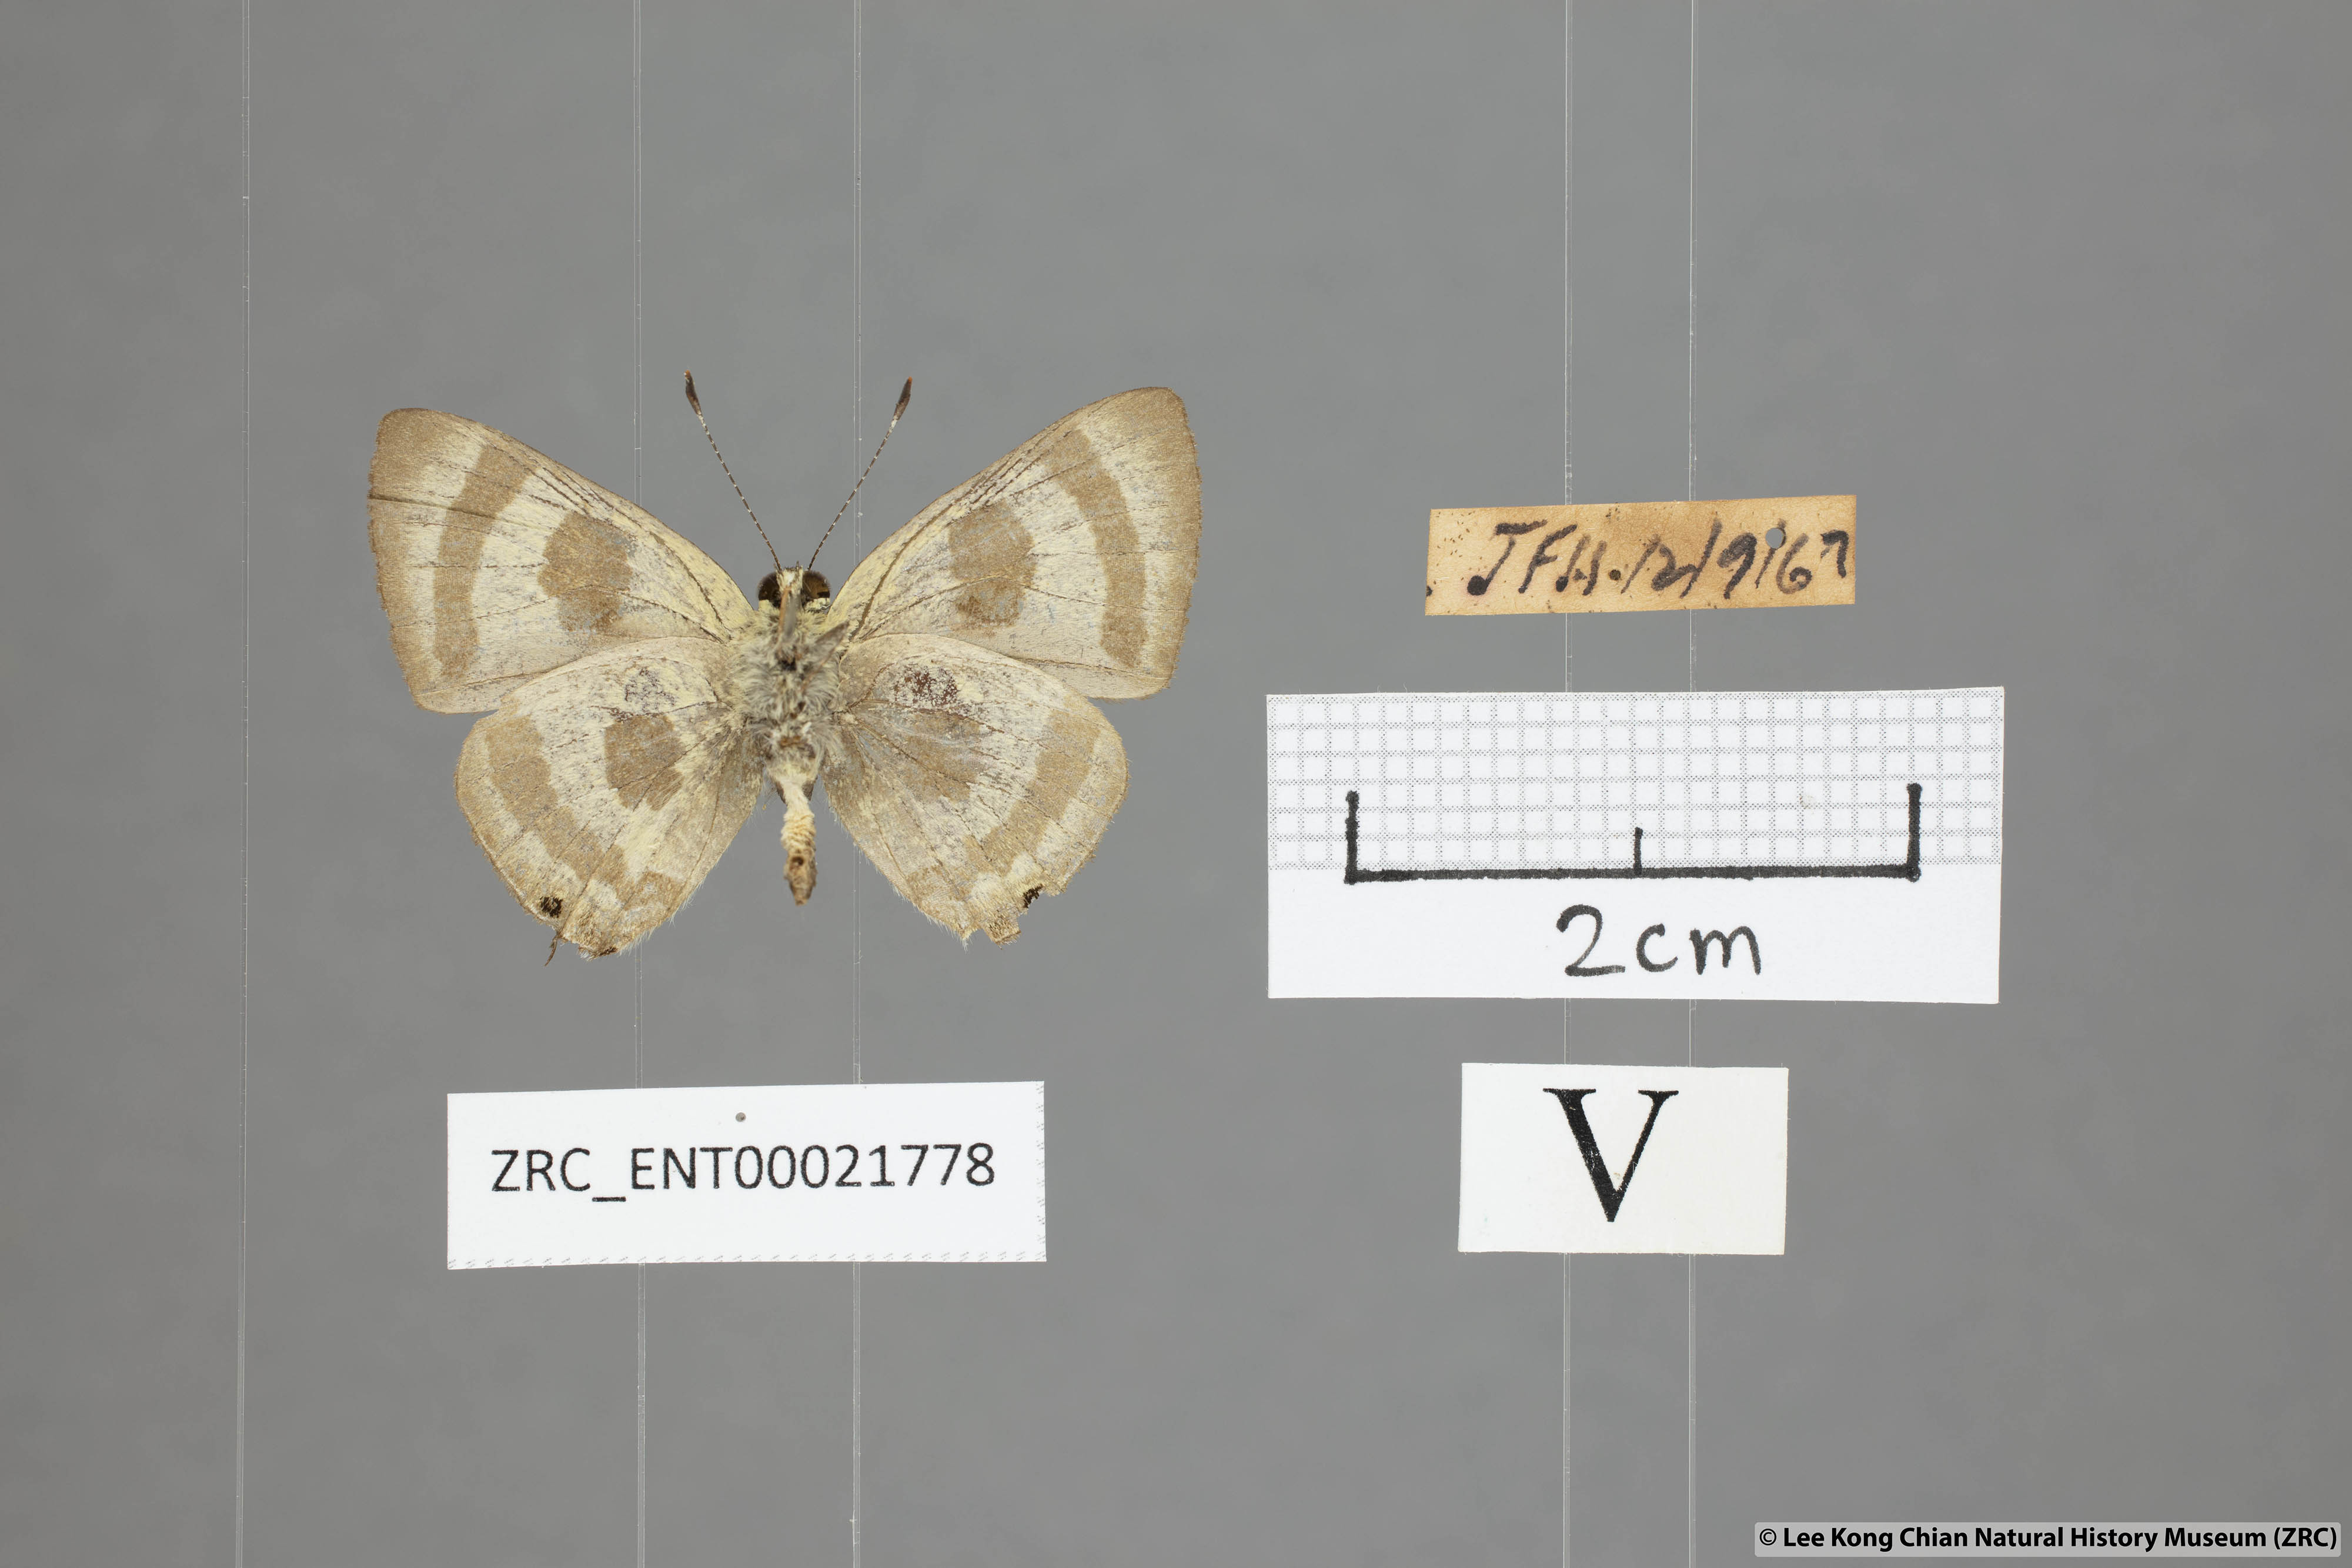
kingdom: Animalia
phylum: Arthropoda
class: Insecta
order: Lepidoptera
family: Lycaenidae
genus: Rapala
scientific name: Rapala
